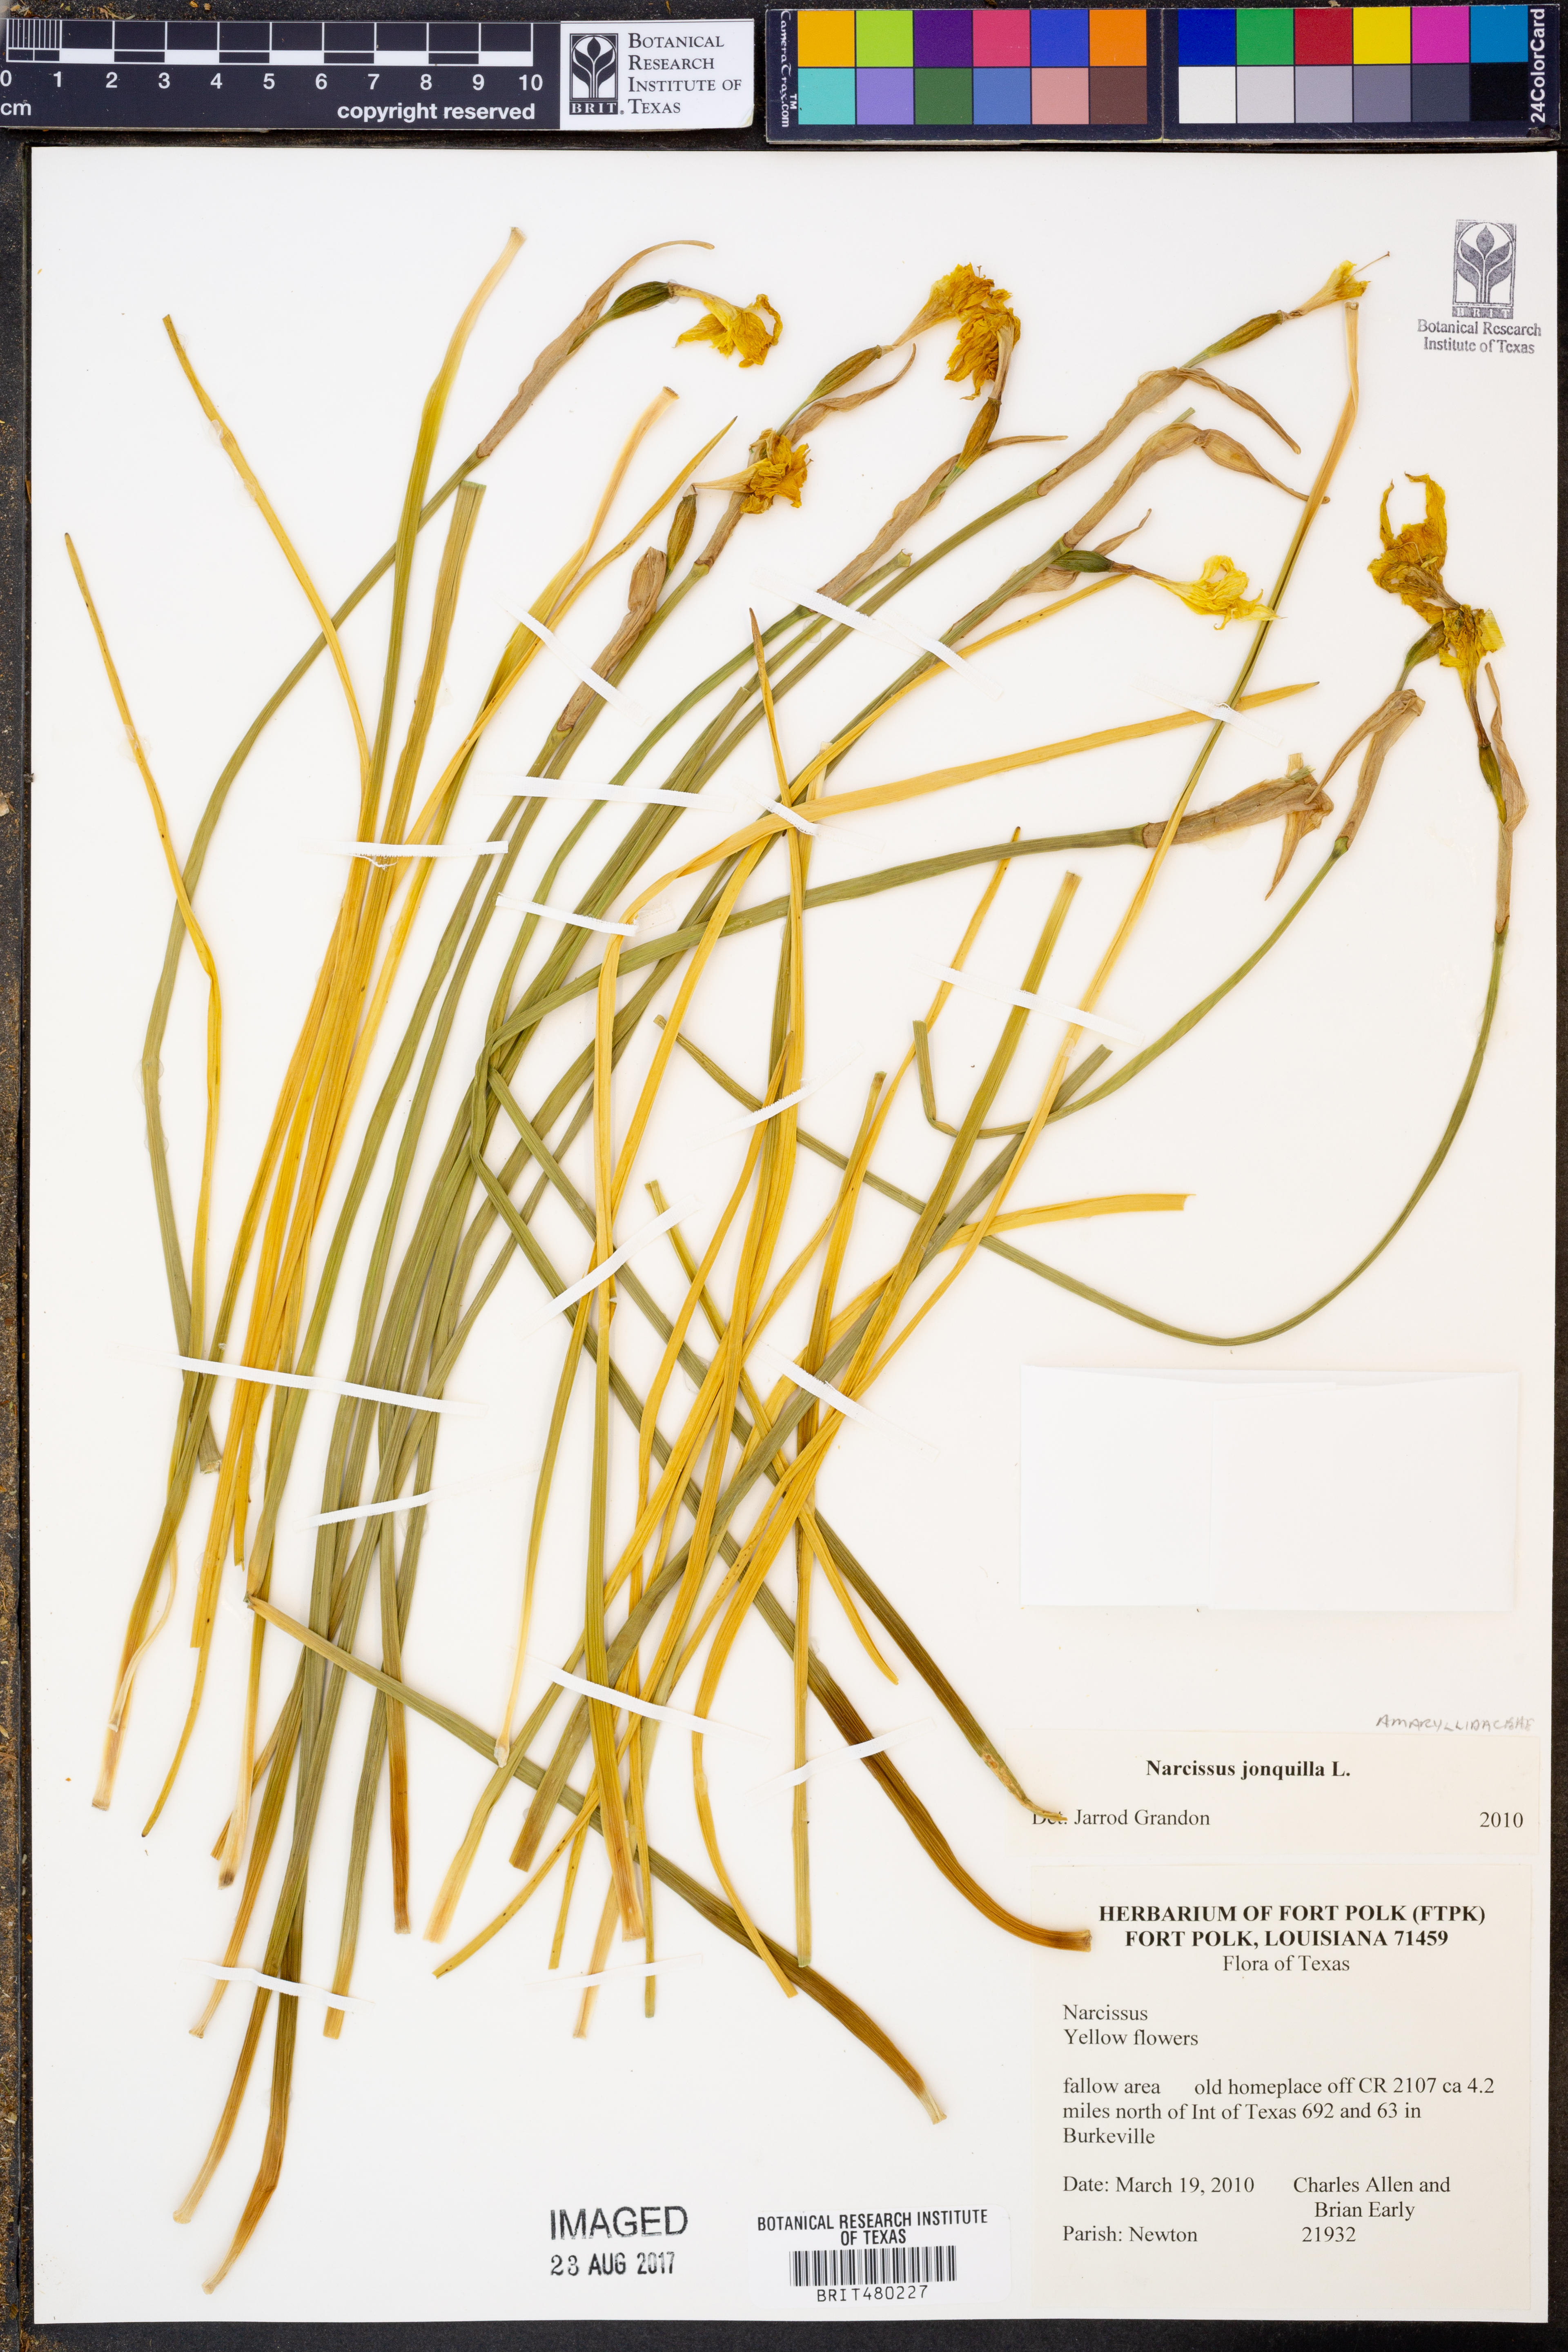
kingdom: Plantae
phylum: Tracheophyta
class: Liliopsida
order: Asparagales
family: Amaryllidaceae
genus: Narcissus
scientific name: Narcissus jonquilla
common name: Jonquil
